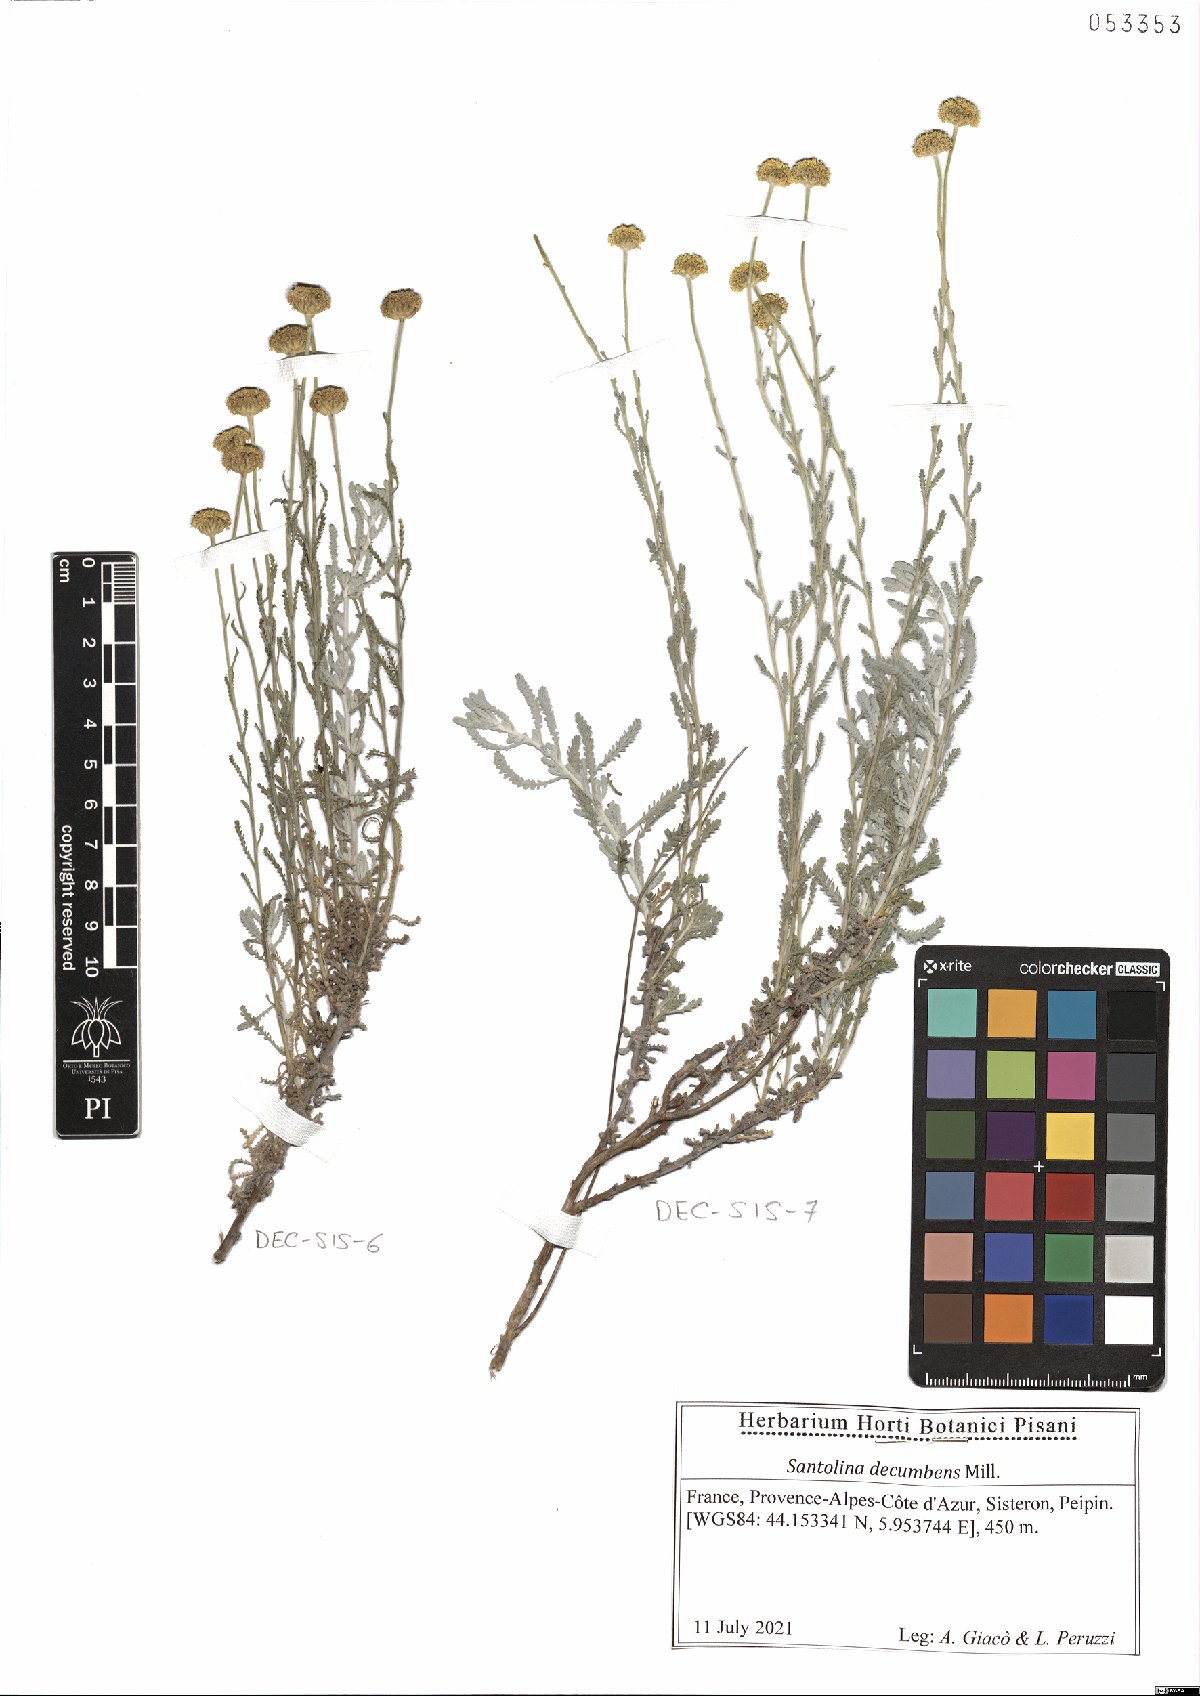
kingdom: Plantae
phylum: Tracheophyta
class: Magnoliopsida
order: Asterales
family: Asteraceae
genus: Santolina
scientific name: Santolina decumbens
